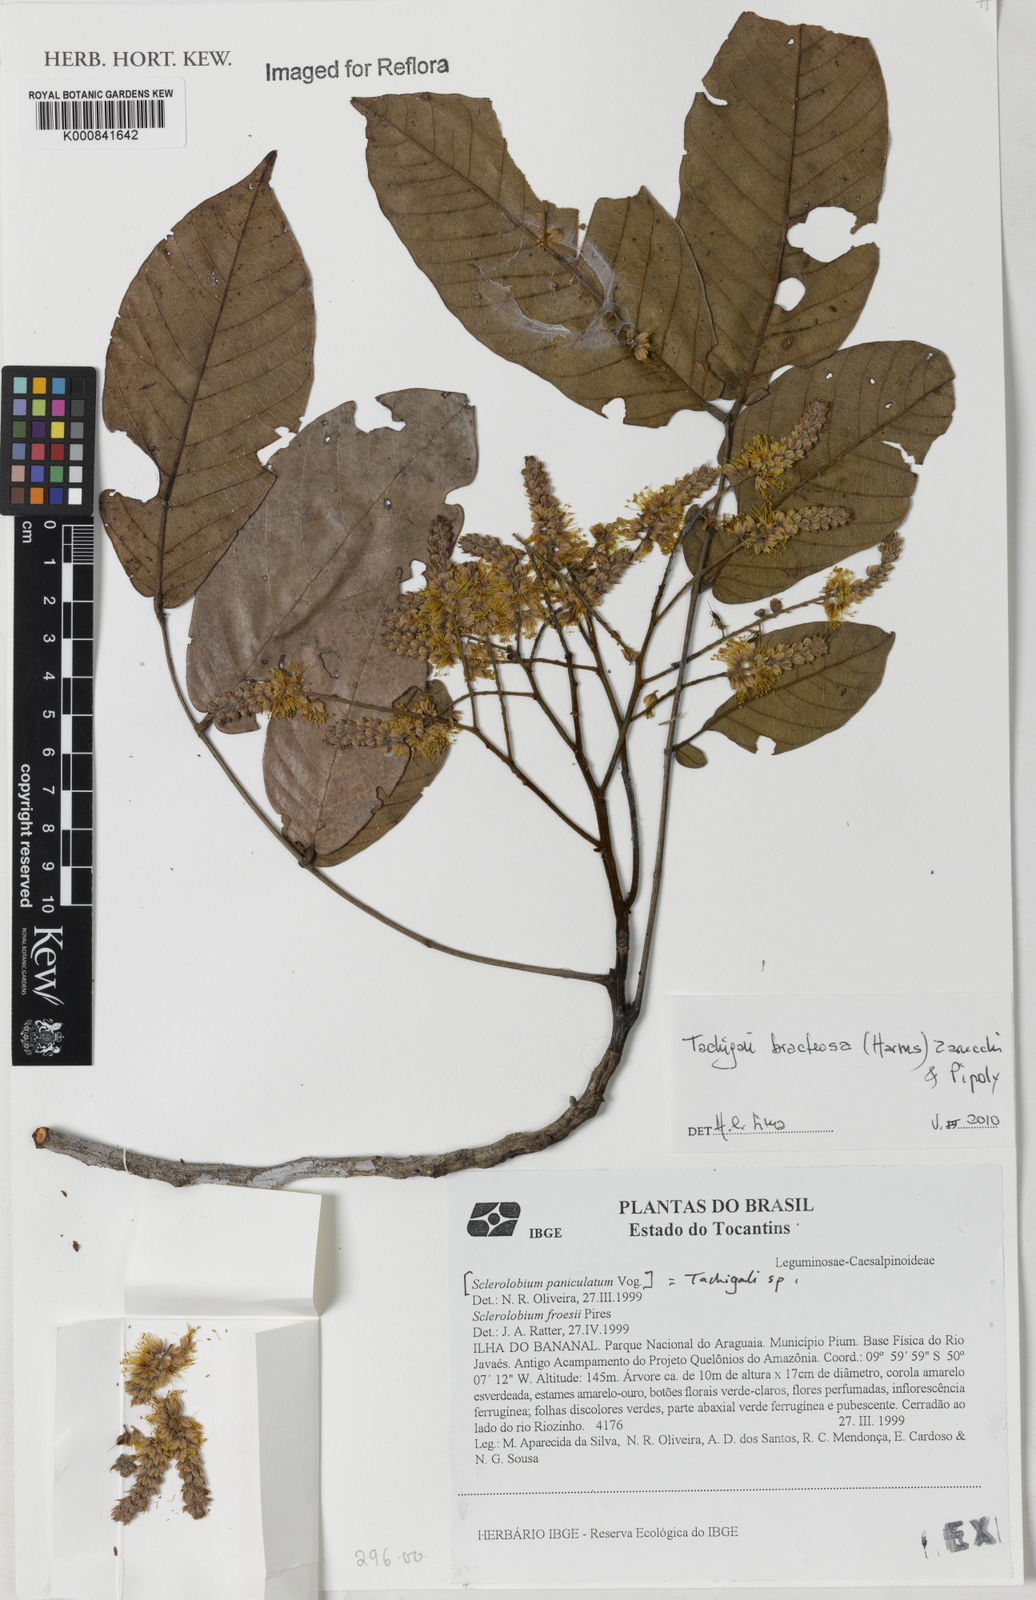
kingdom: Plantae
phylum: Tracheophyta
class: Magnoliopsida
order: Fabales
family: Fabaceae
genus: Tachigali
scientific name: Tachigali bracteosa
